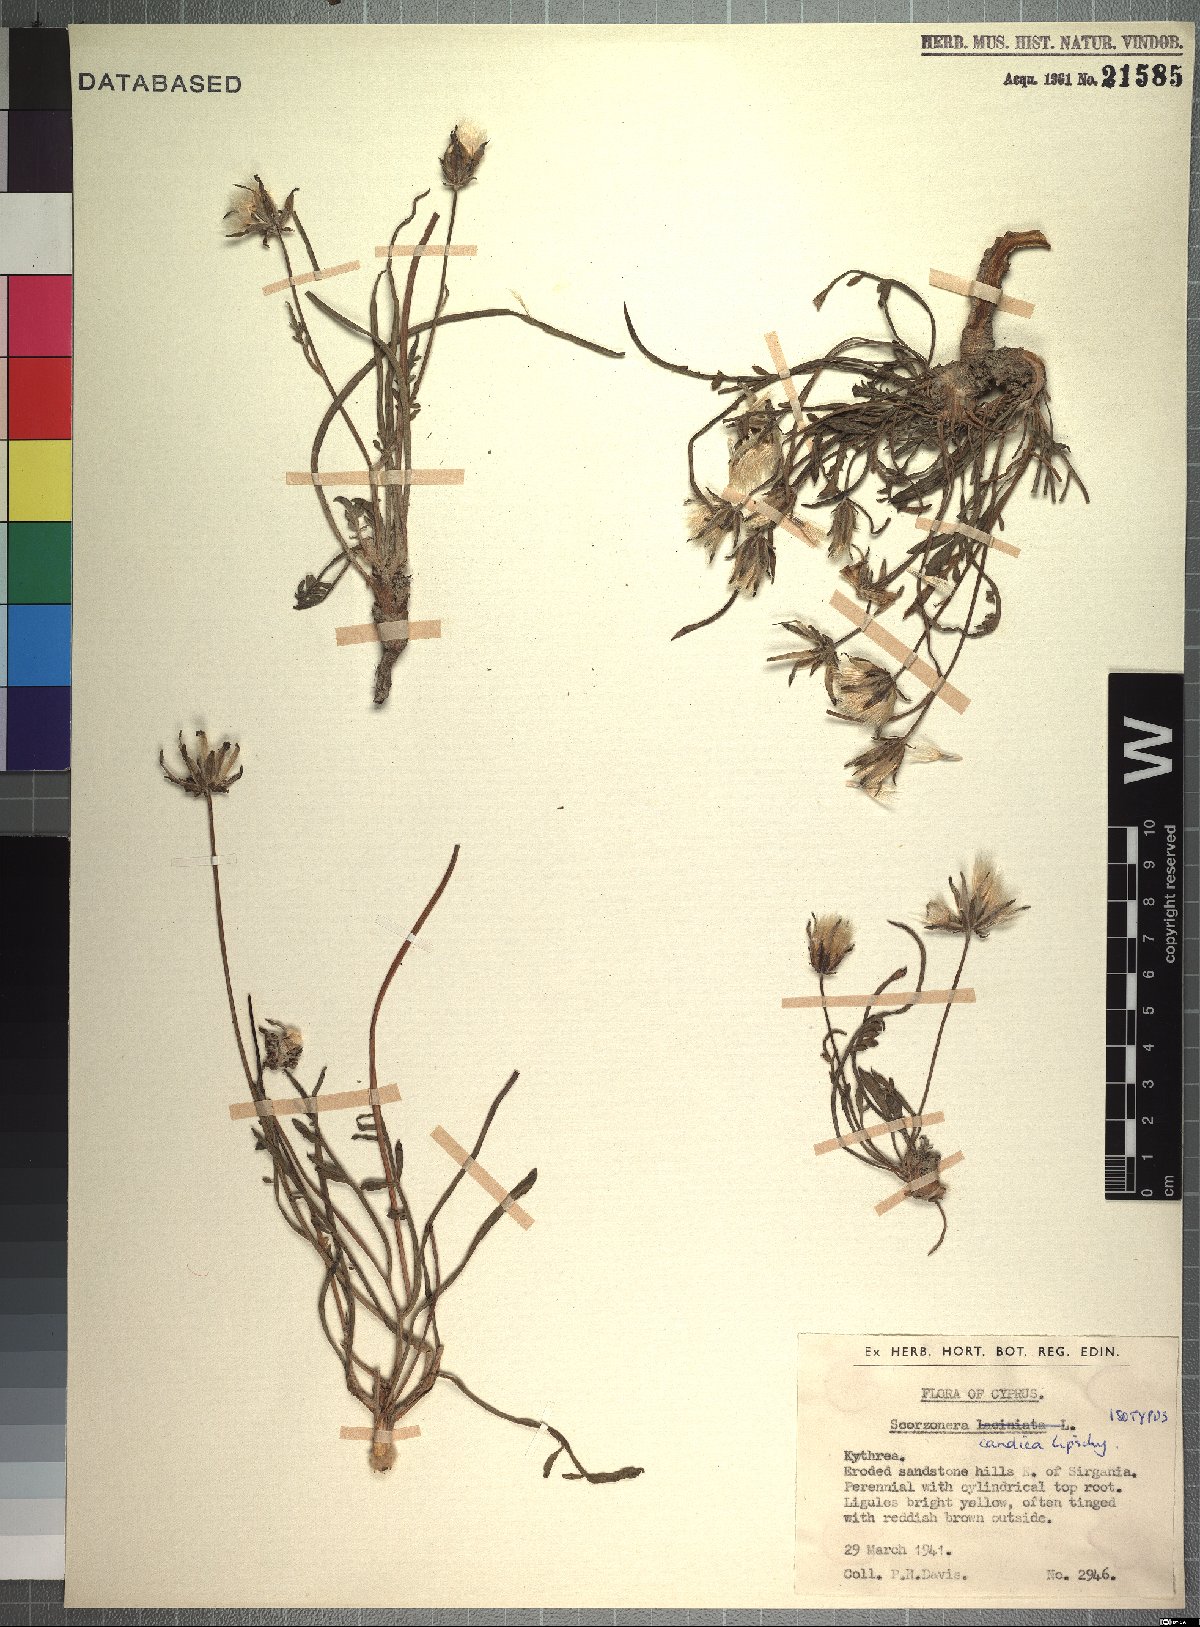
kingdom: Plantae
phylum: Tracheophyta
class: Magnoliopsida
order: Asterales
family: Asteraceae
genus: Scorzonera
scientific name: Scorzonera alpigena
